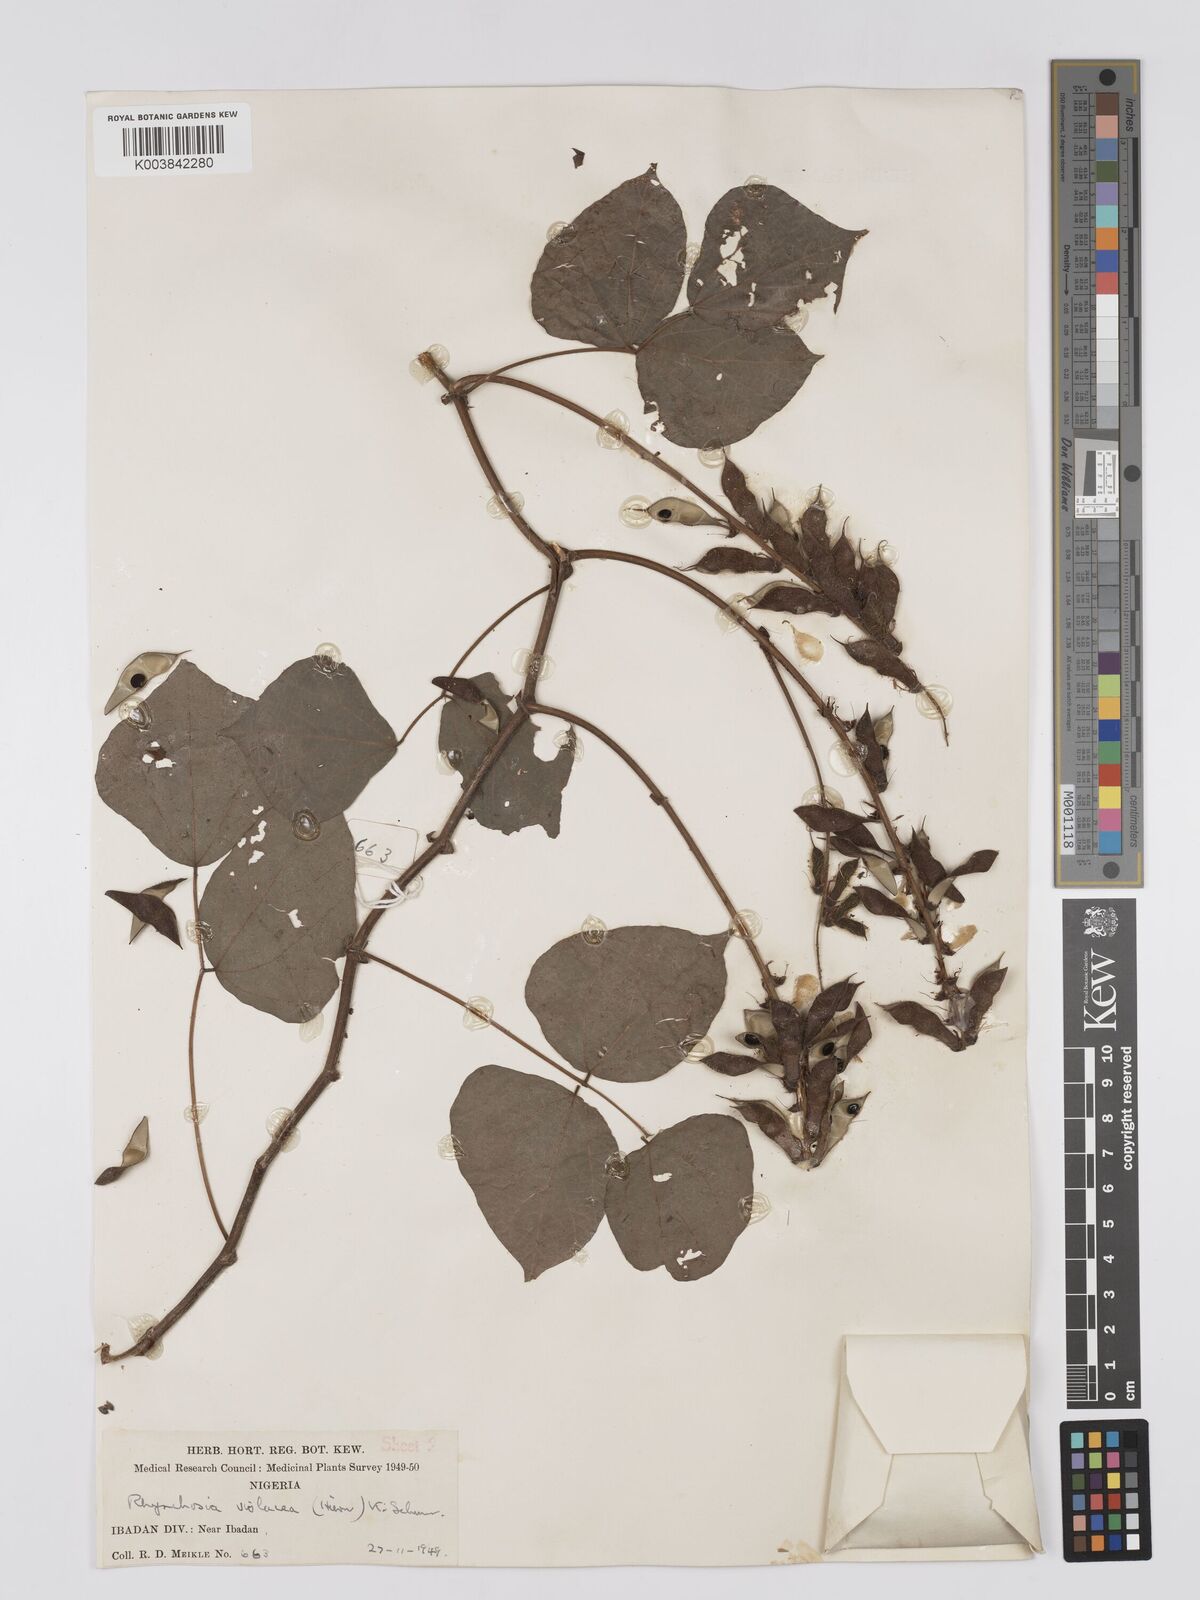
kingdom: Plantae
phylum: Tracheophyta
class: Magnoliopsida
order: Fabales
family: Fabaceae
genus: Rhynchosia
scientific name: Rhynchosia viscosa
